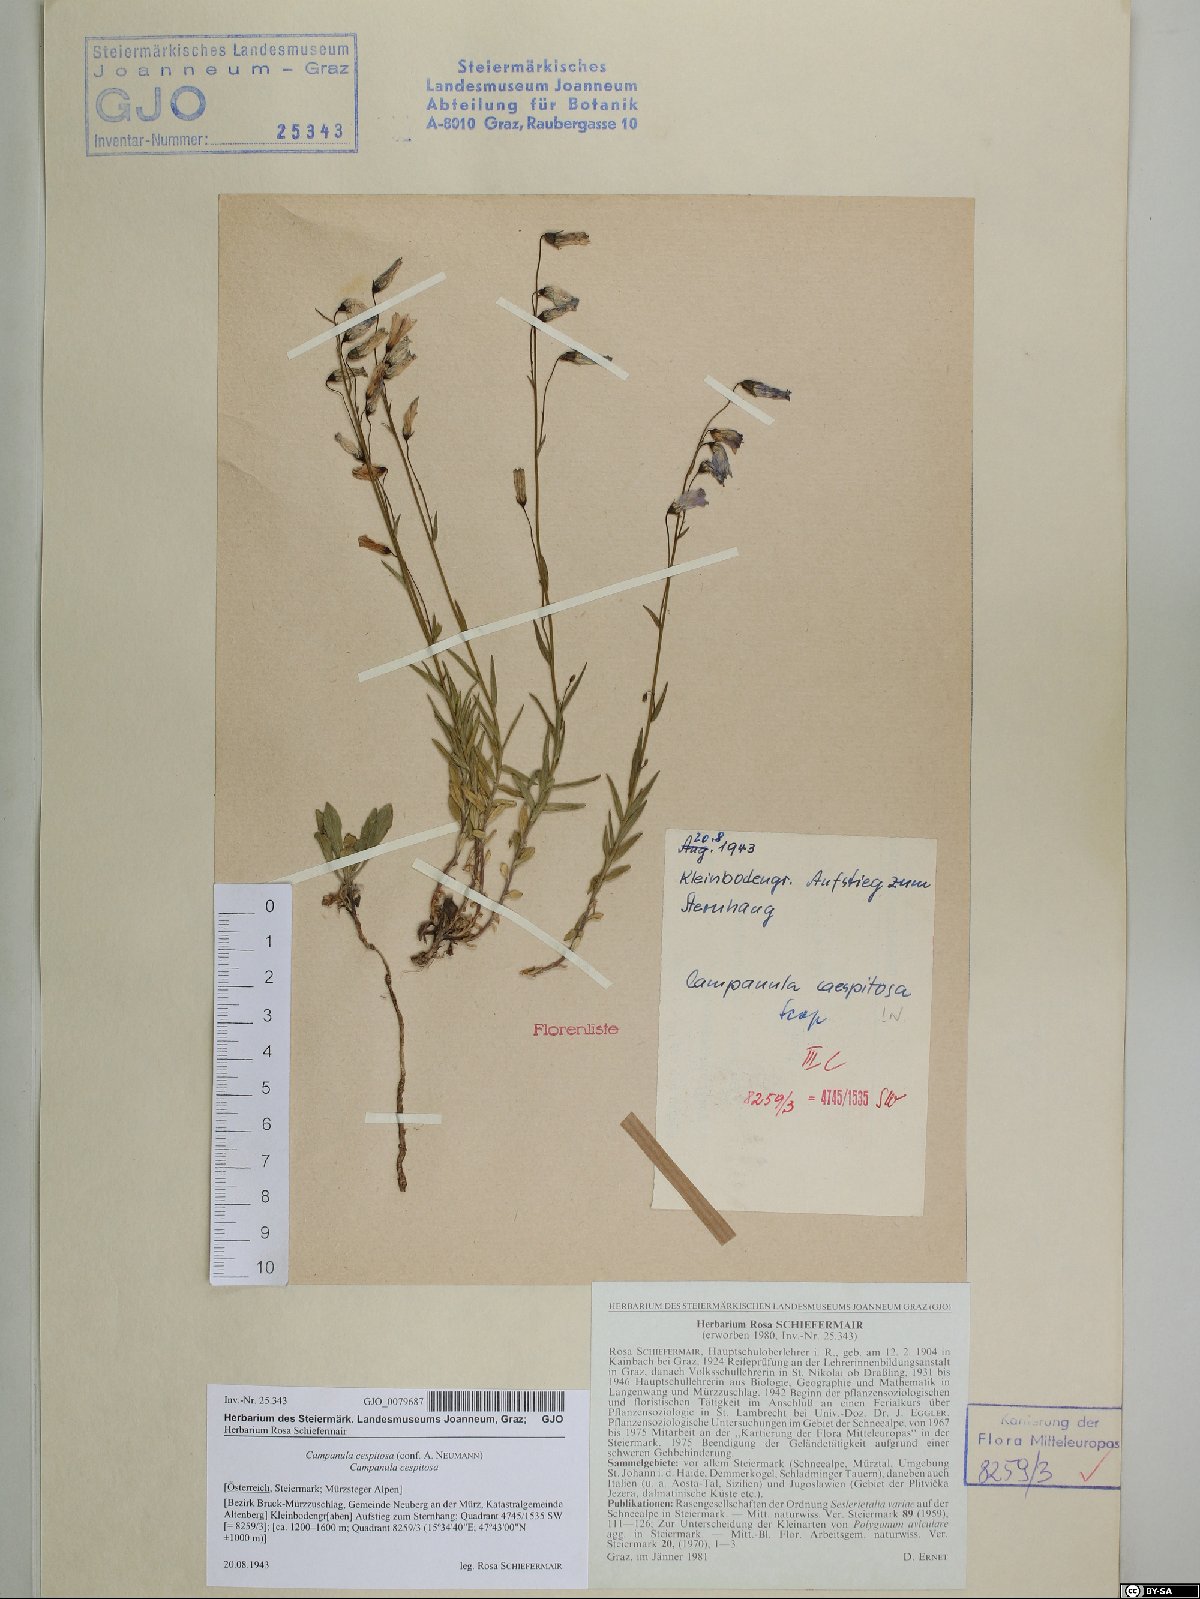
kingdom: Plantae
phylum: Tracheophyta
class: Magnoliopsida
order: Asterales
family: Campanulaceae
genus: Campanula
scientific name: Campanula cespitosa
